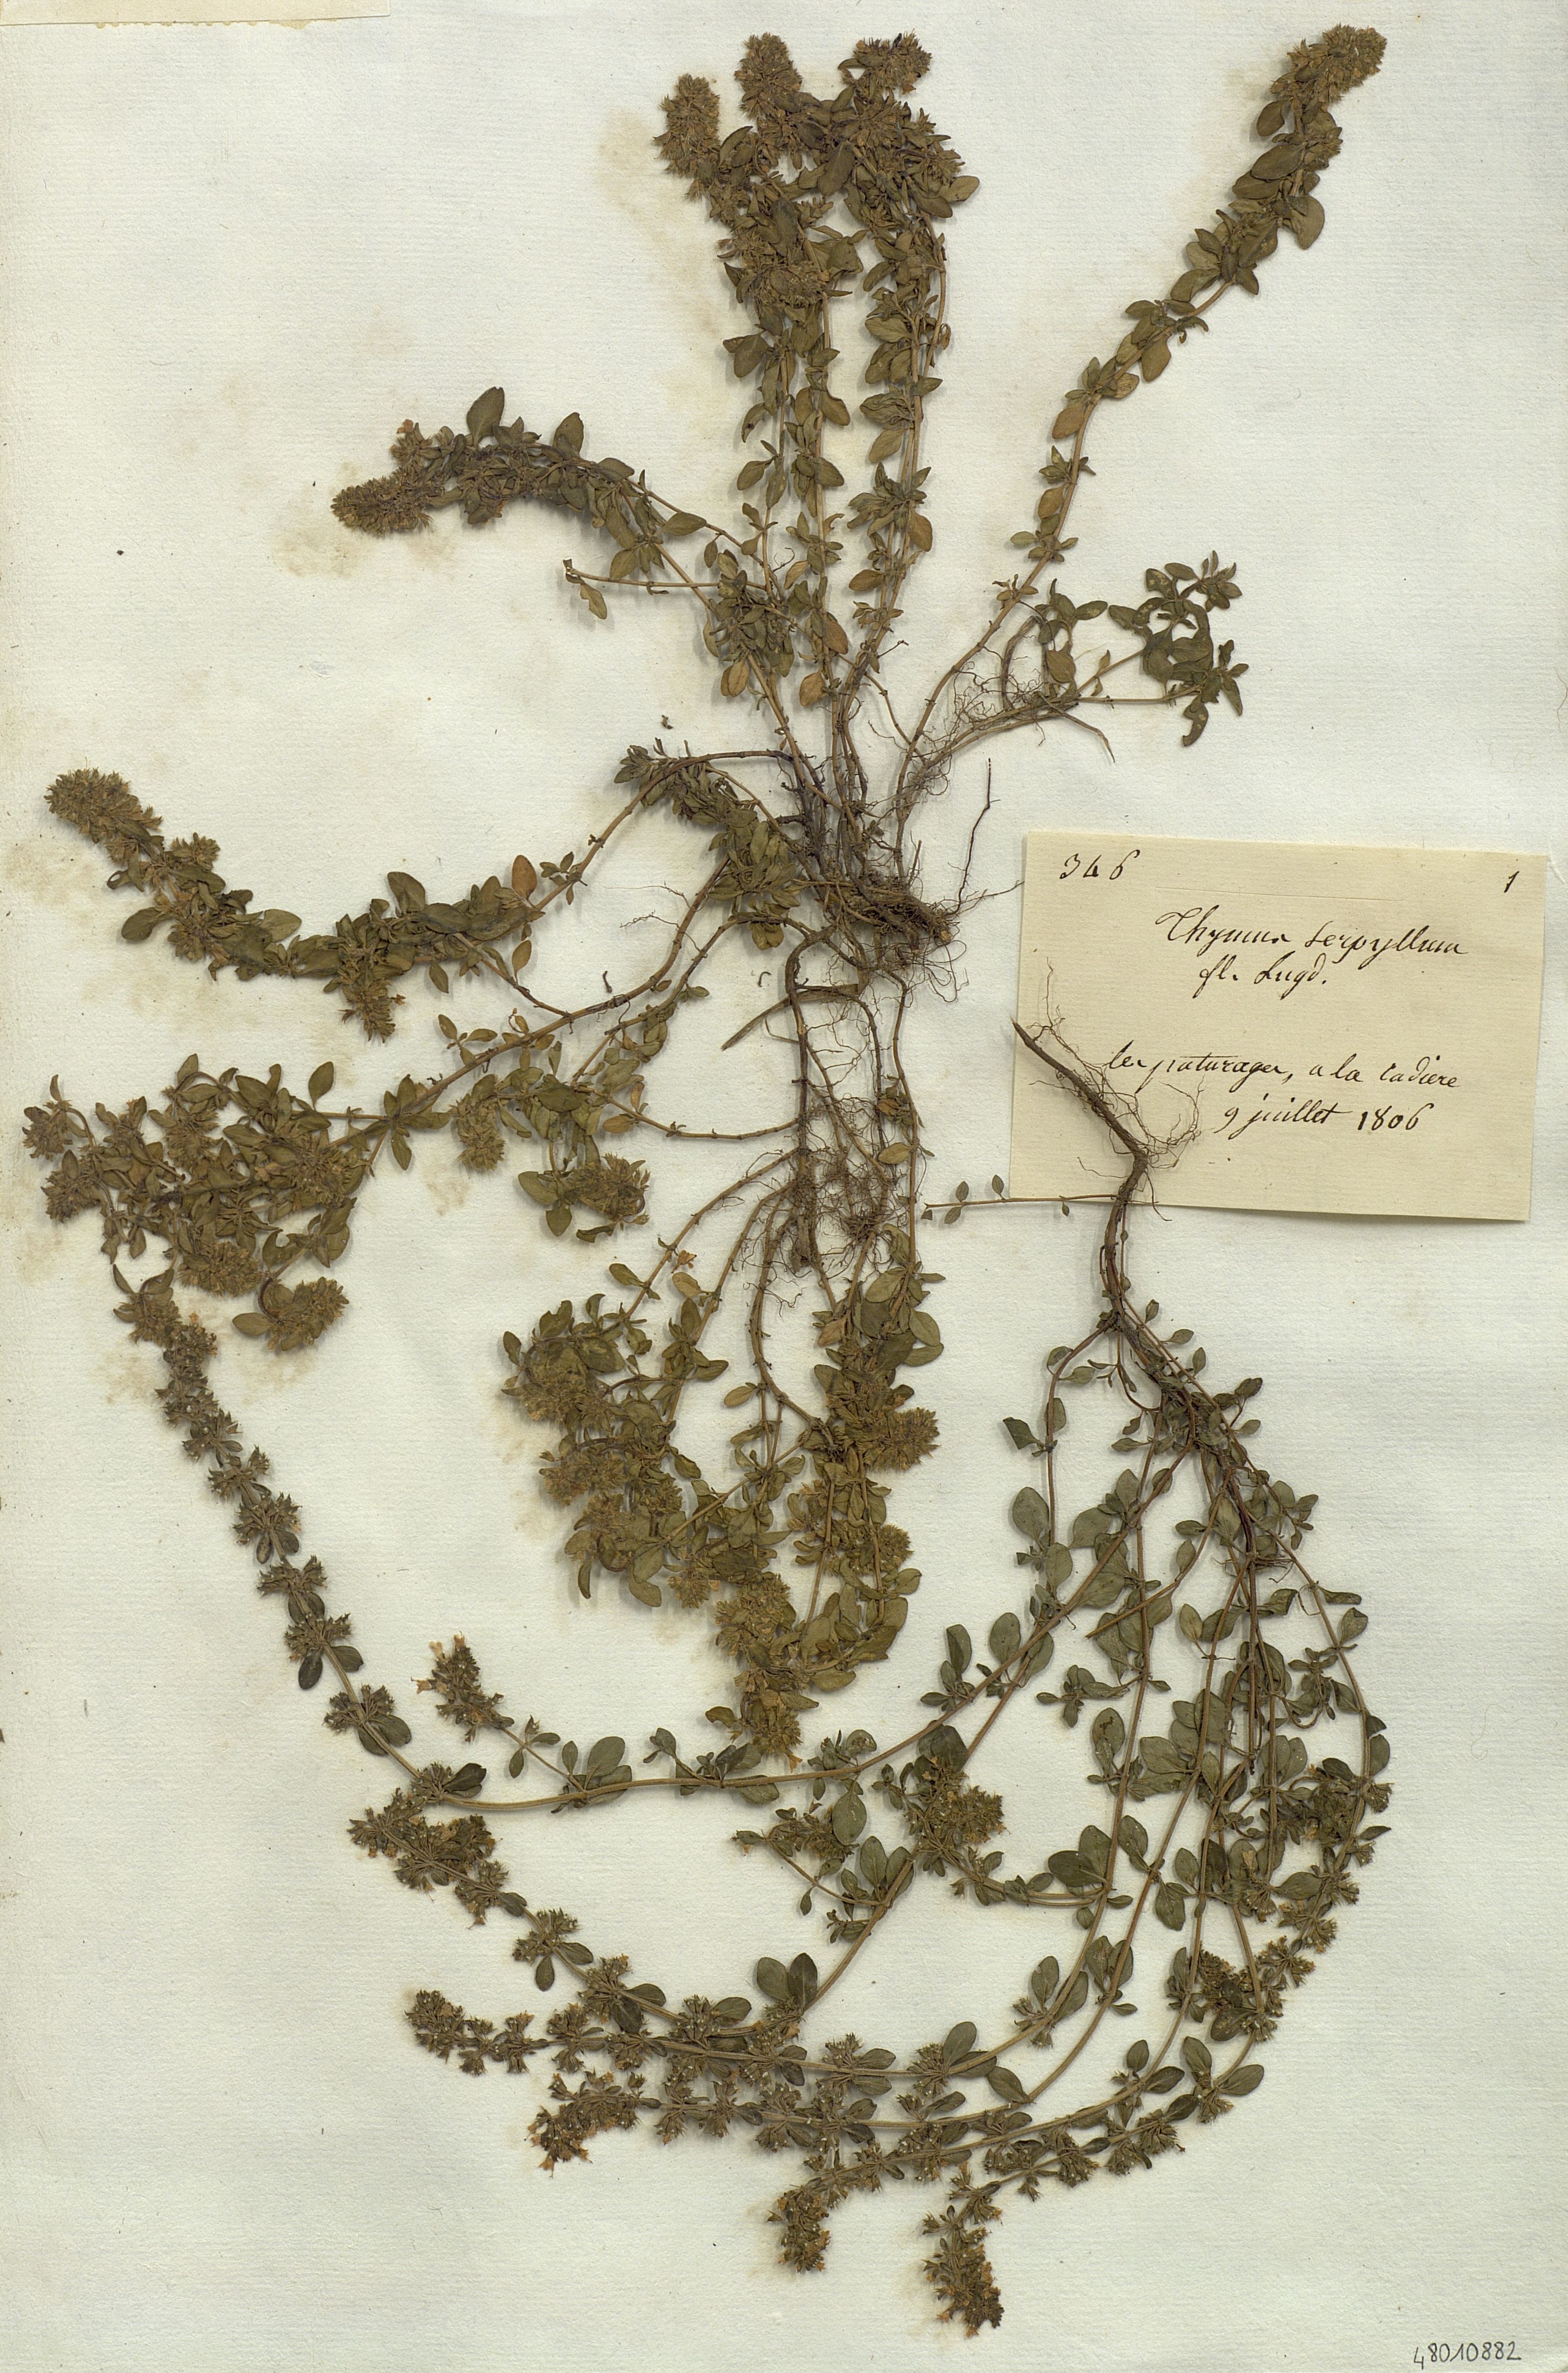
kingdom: Plantae
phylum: Tracheophyta
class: Magnoliopsida
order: Lamiales
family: Lamiaceae
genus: Thymus
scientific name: Thymus serpyllum
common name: Breckland thyme
